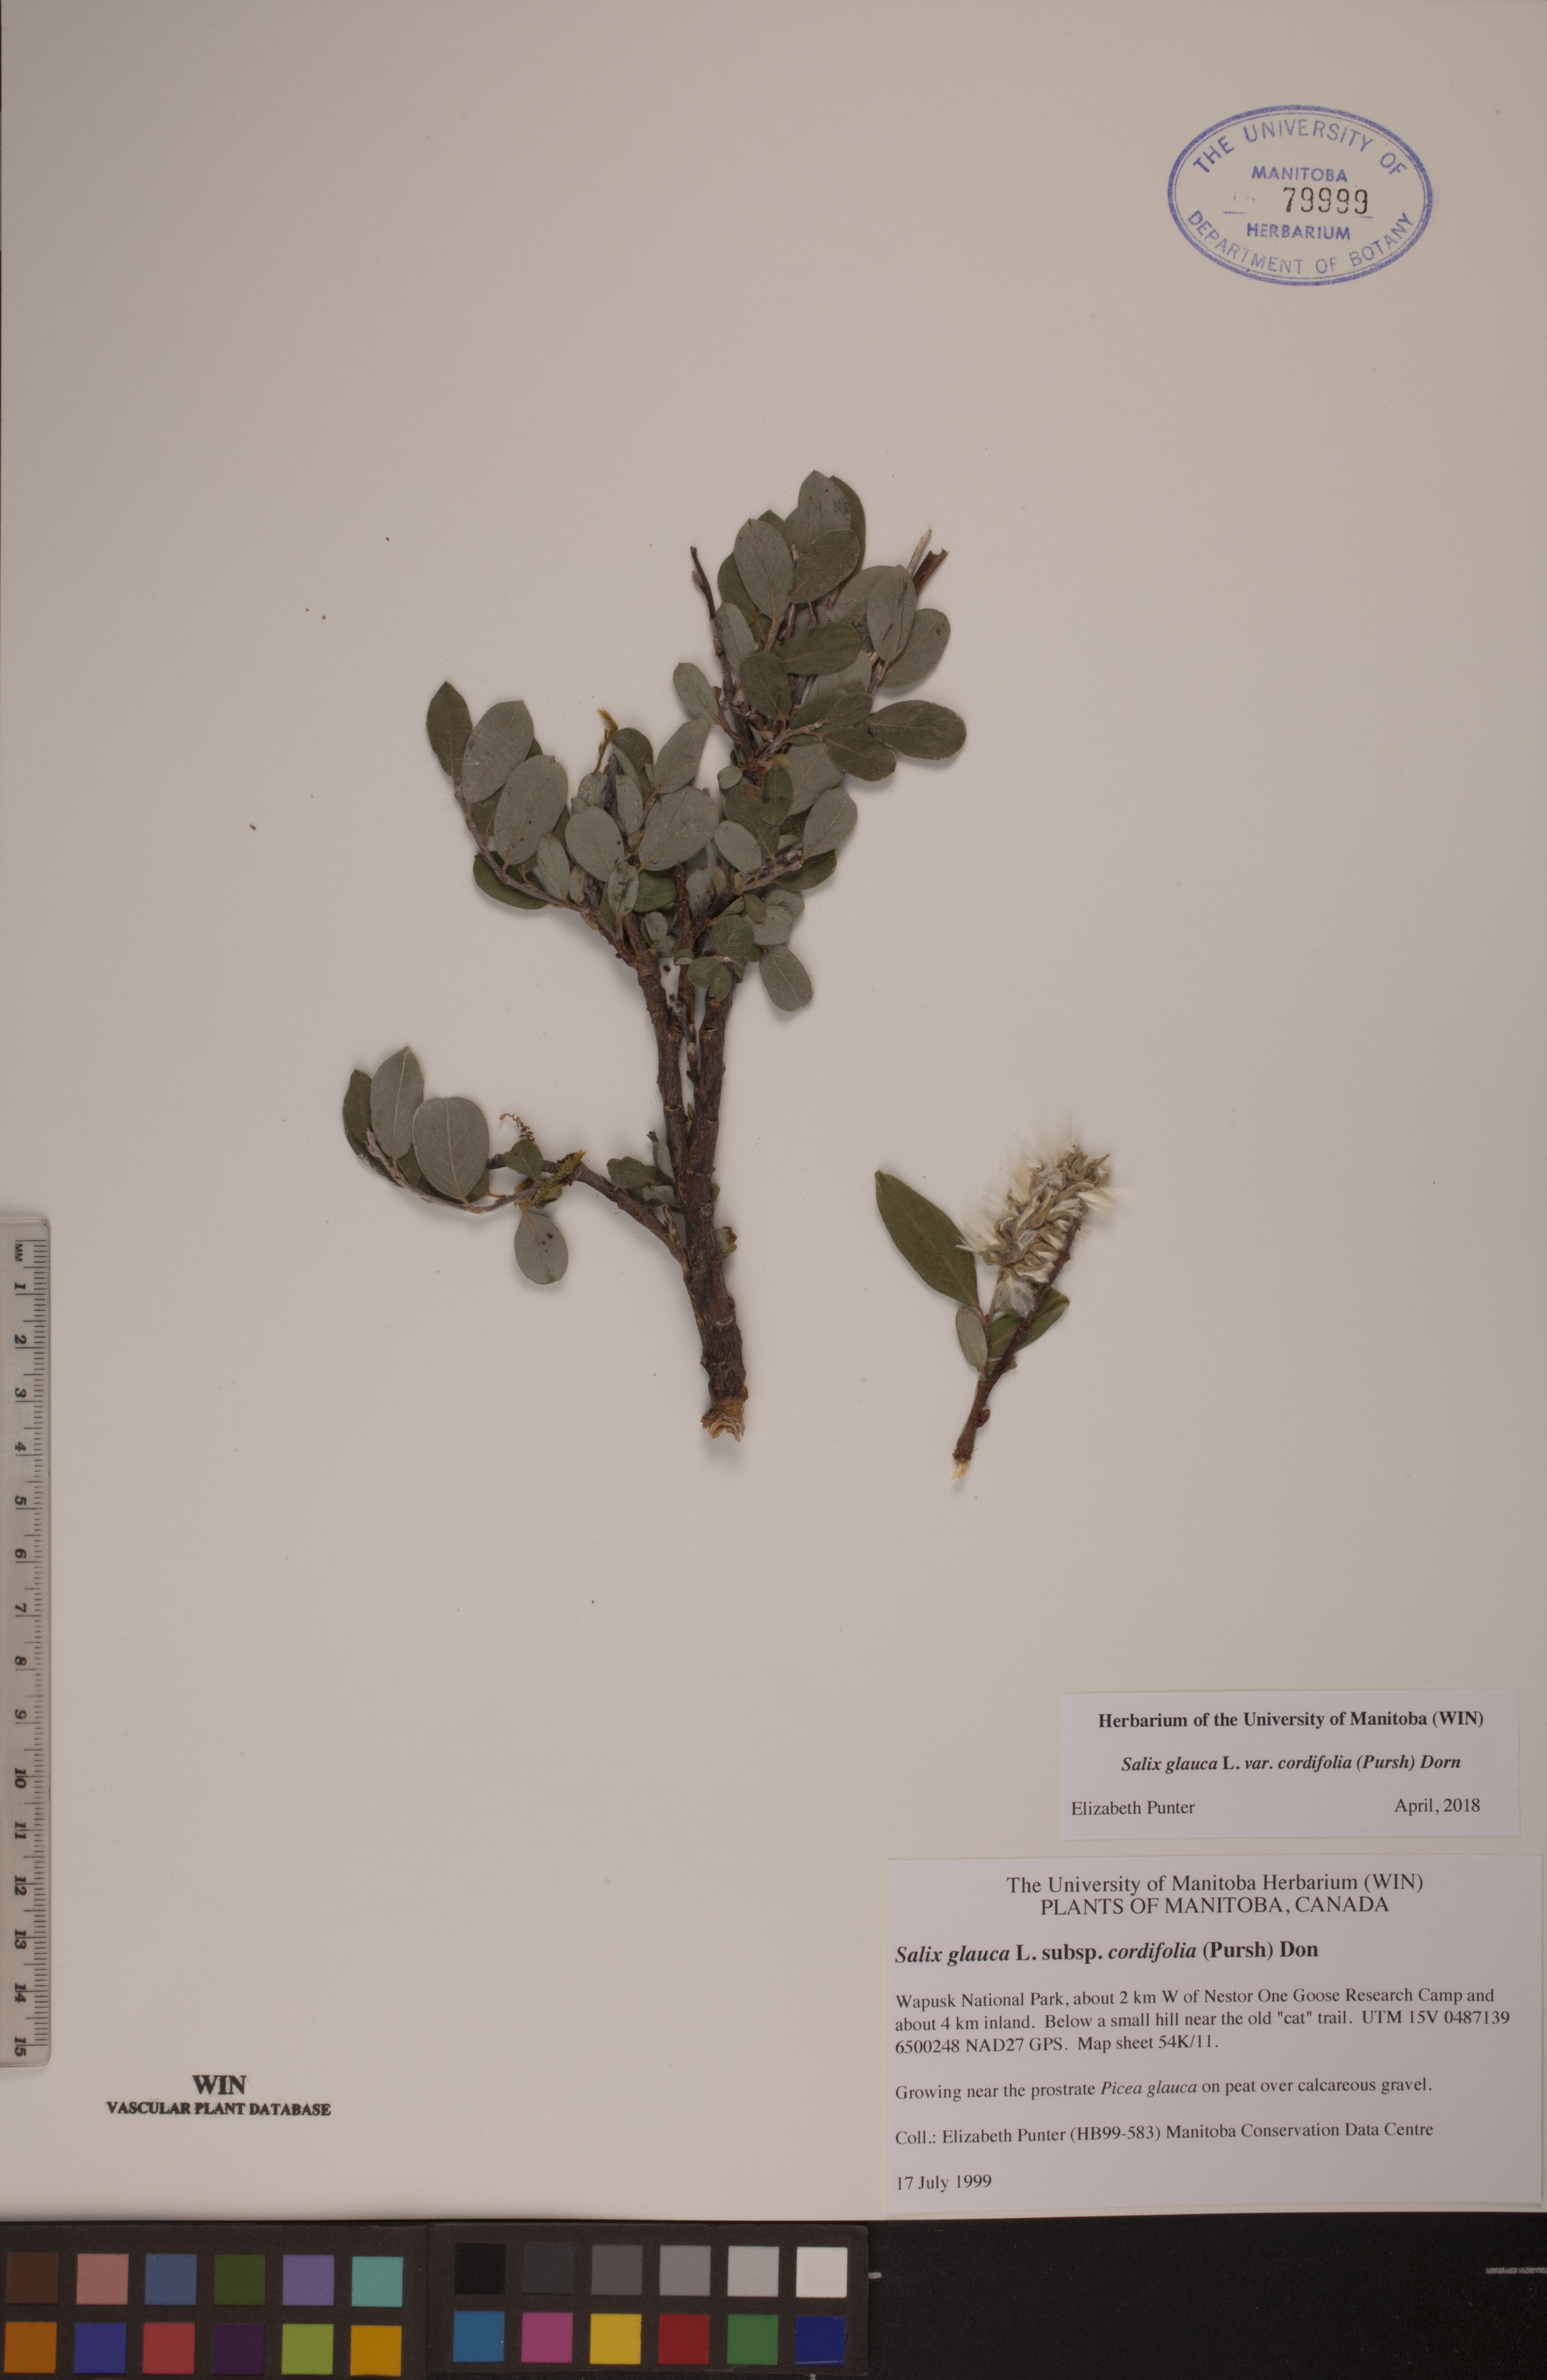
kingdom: Plantae
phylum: Tracheophyta
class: Magnoliopsida
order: Malpighiales
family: Salicaceae
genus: Salix
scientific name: Salix glauca
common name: Glaucous willow
